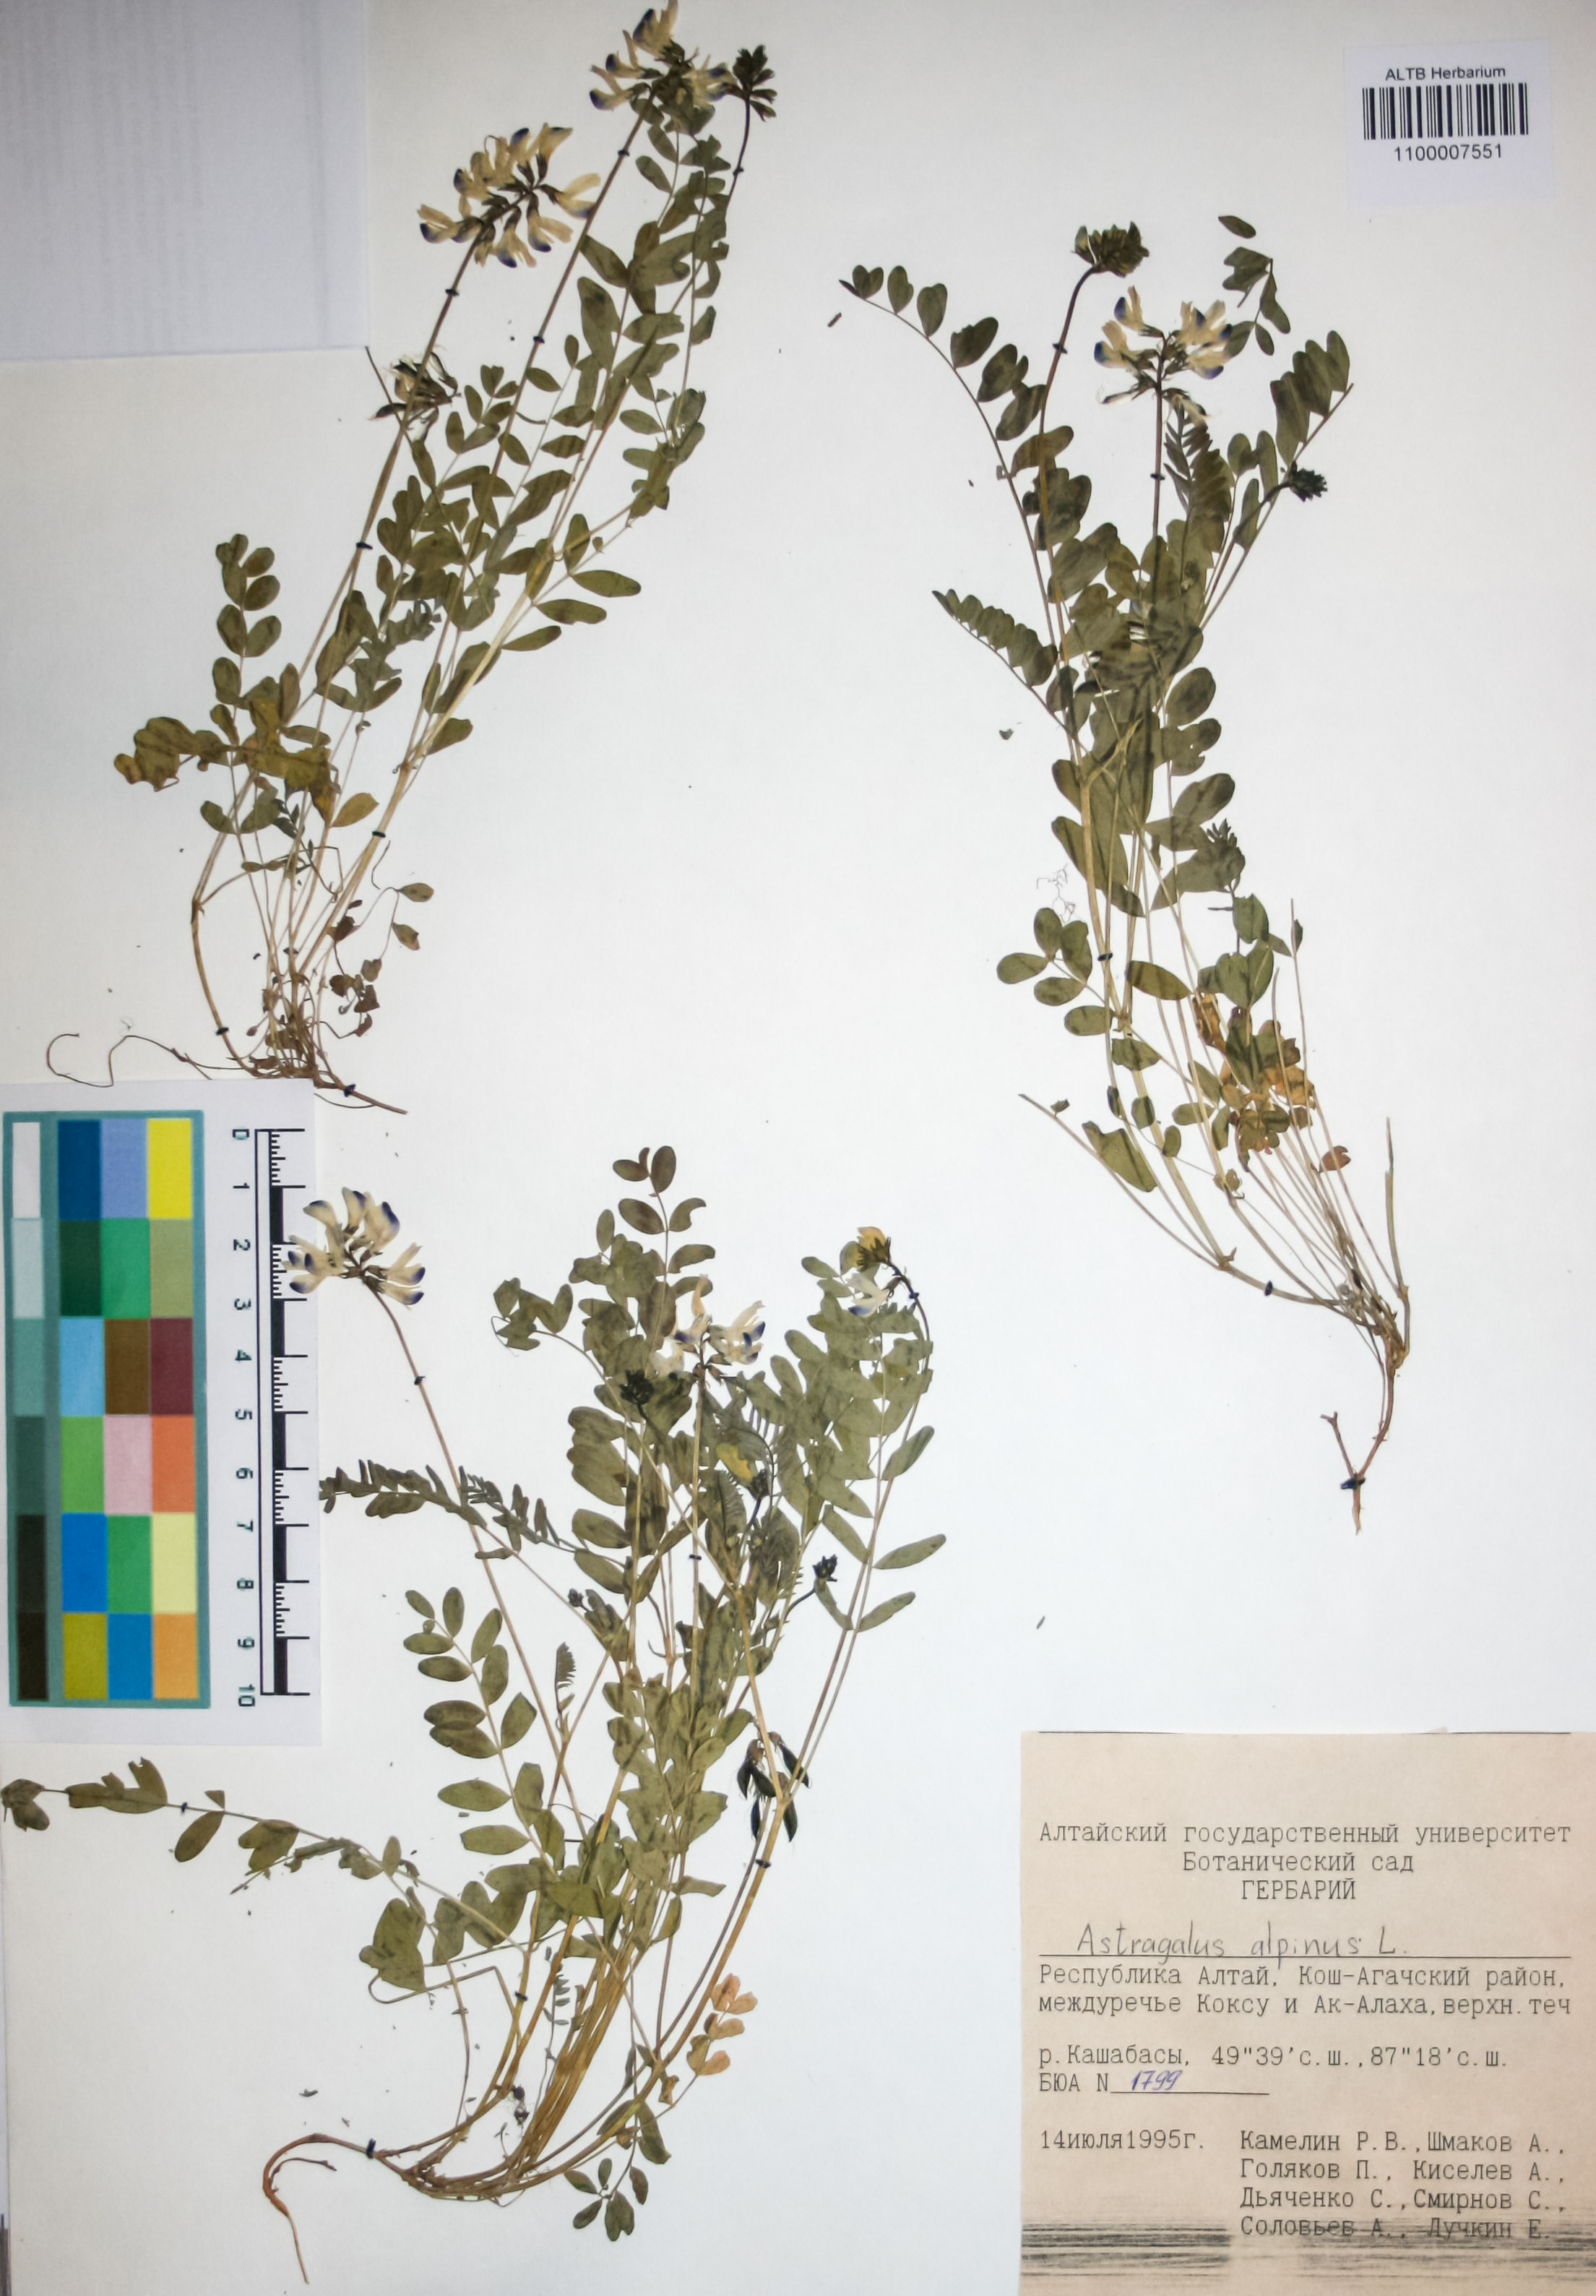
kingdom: Plantae
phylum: Tracheophyta
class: Magnoliopsida
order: Fabales
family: Fabaceae
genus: Astragalus
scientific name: Astragalus alpinus
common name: Alpine milk-vetch
